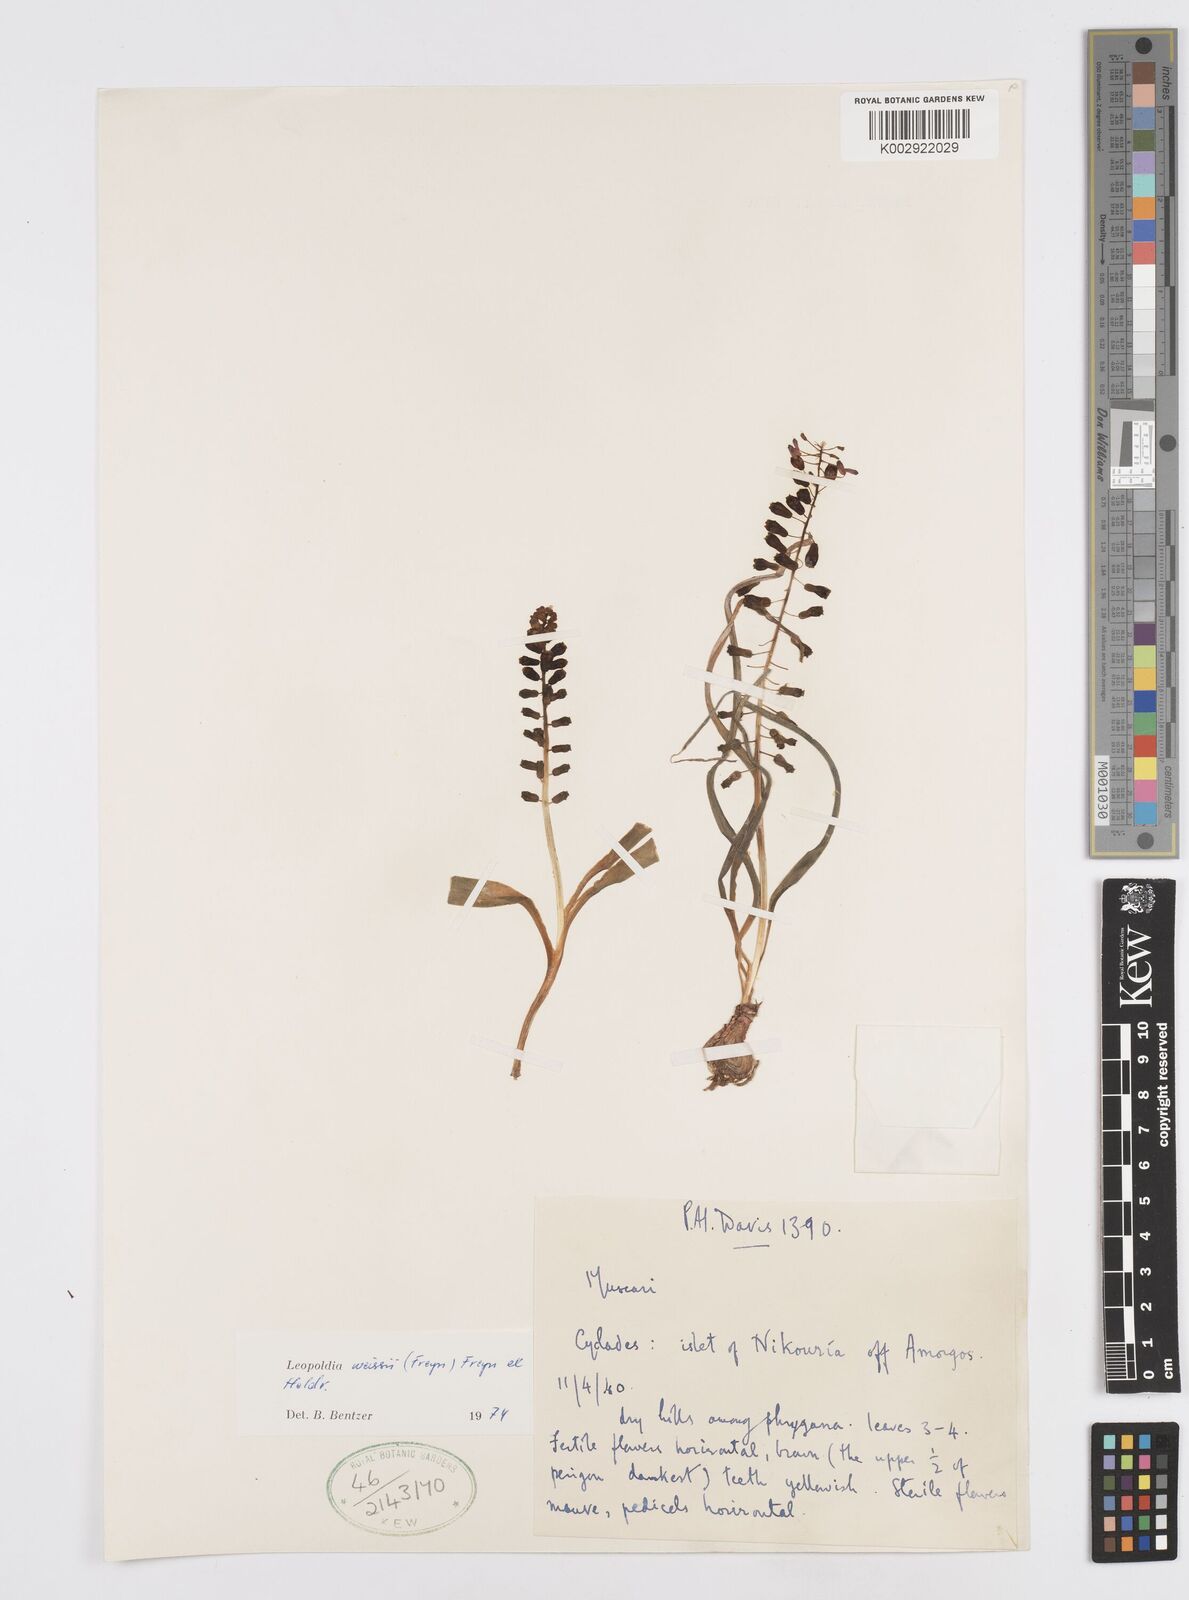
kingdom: Plantae
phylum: Tracheophyta
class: Liliopsida
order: Asparagales
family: Asparagaceae
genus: Muscari
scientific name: Muscari weissii
